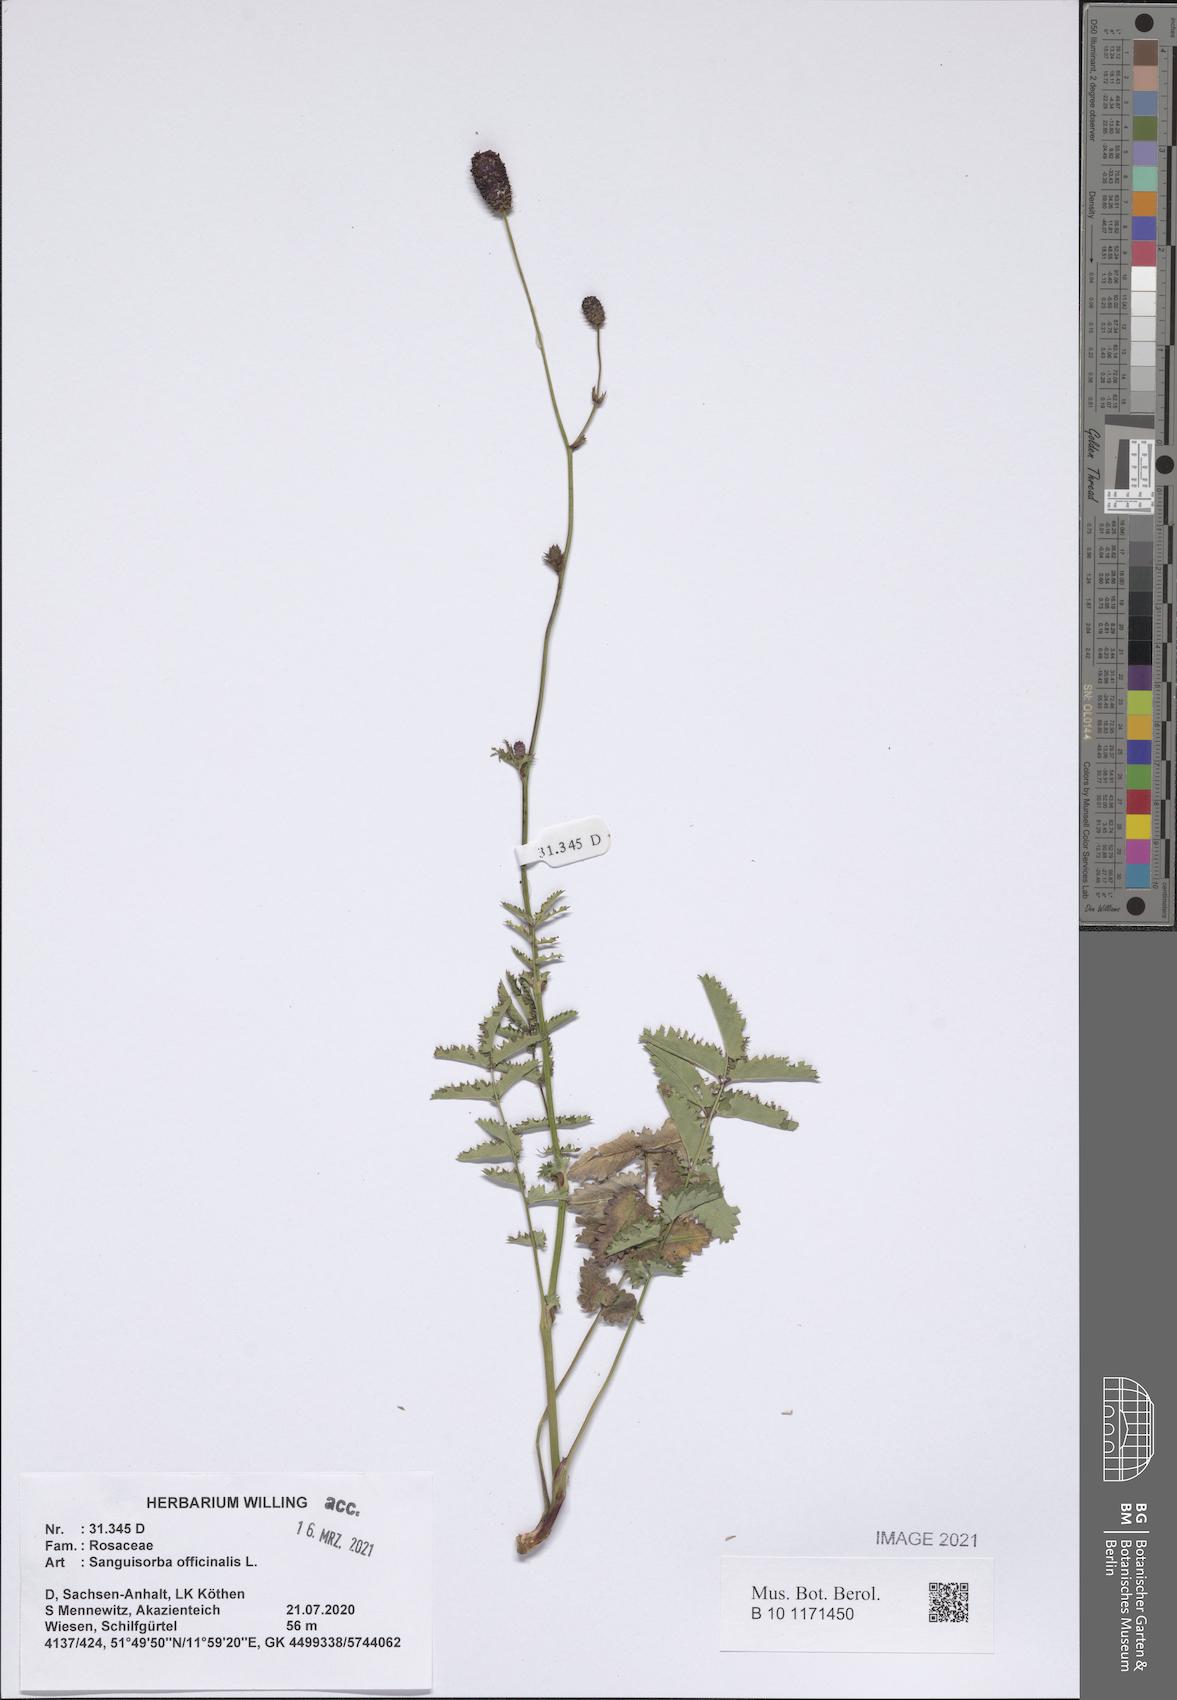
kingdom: Plantae
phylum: Tracheophyta
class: Magnoliopsida
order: Rosales
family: Rosaceae
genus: Sanguisorba
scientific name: Sanguisorba officinalis
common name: Great burnet
